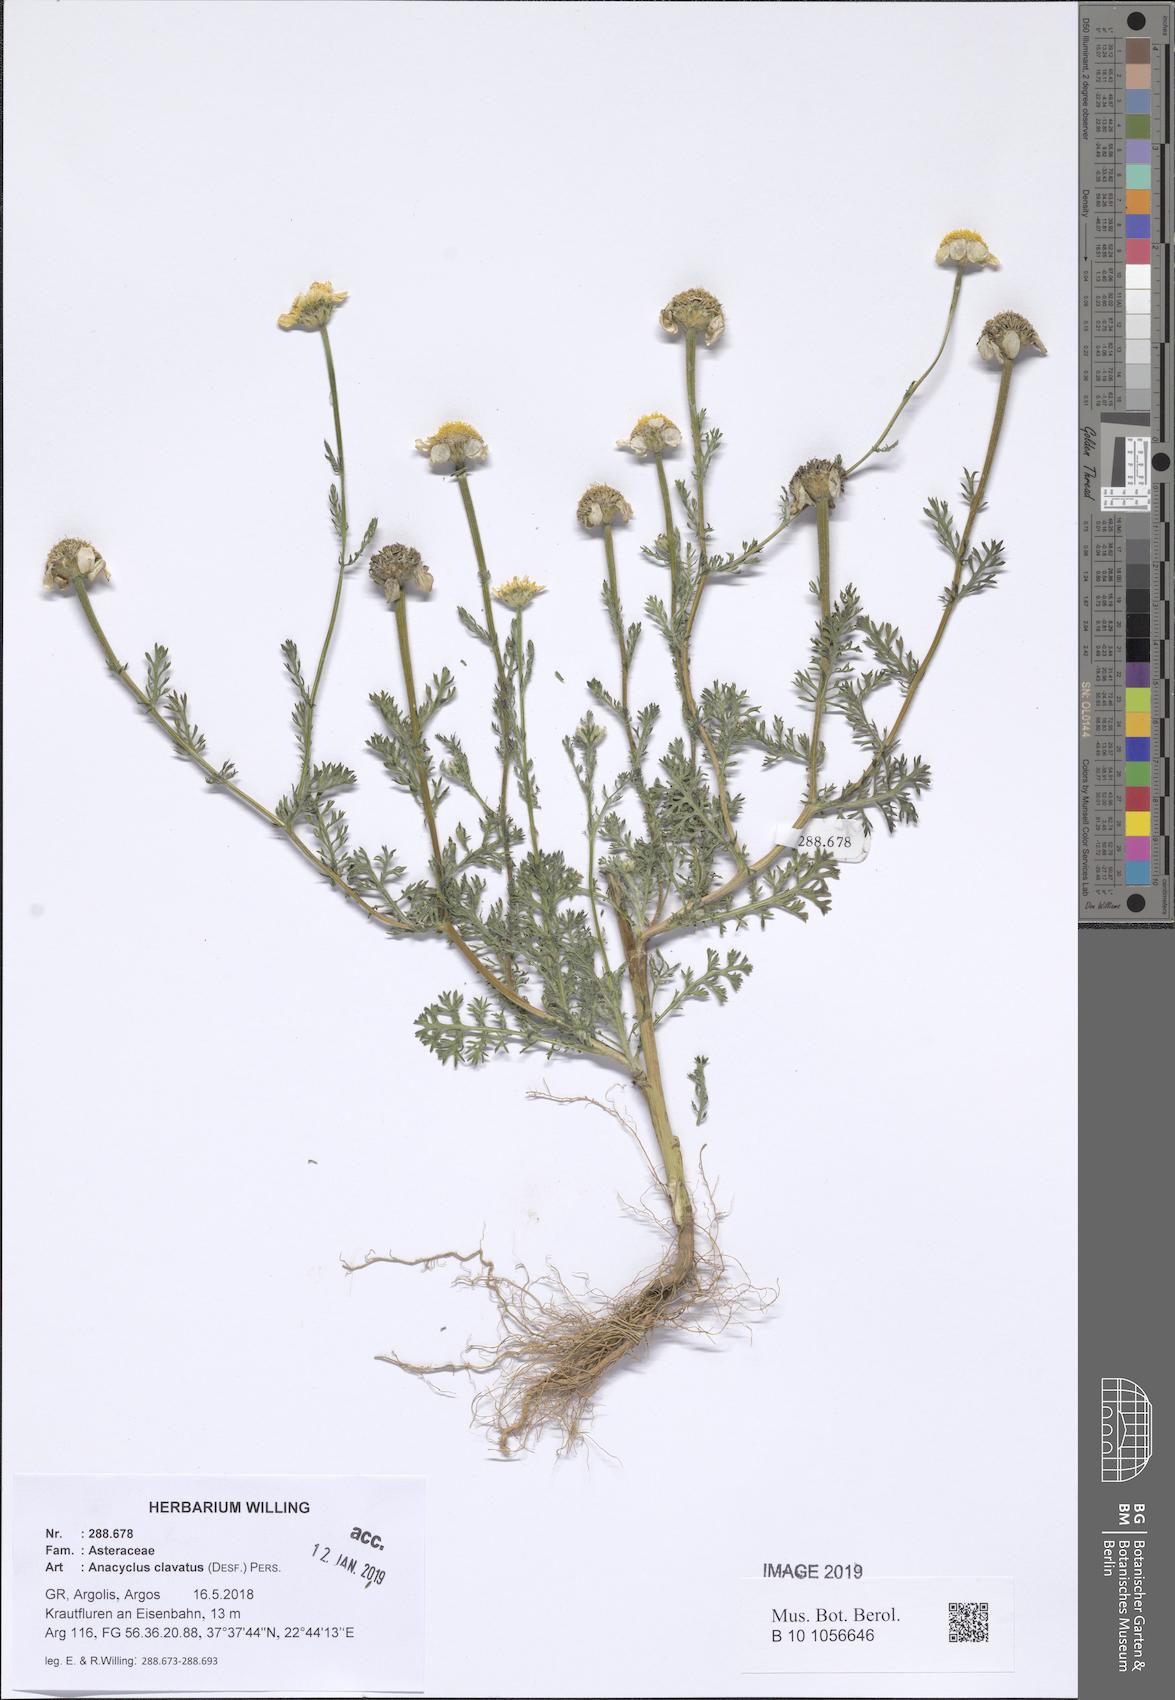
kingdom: Plantae
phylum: Tracheophyta
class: Magnoliopsida
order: Asterales
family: Asteraceae
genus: Anacyclus
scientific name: Anacyclus clavatus
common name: Whitebuttons
